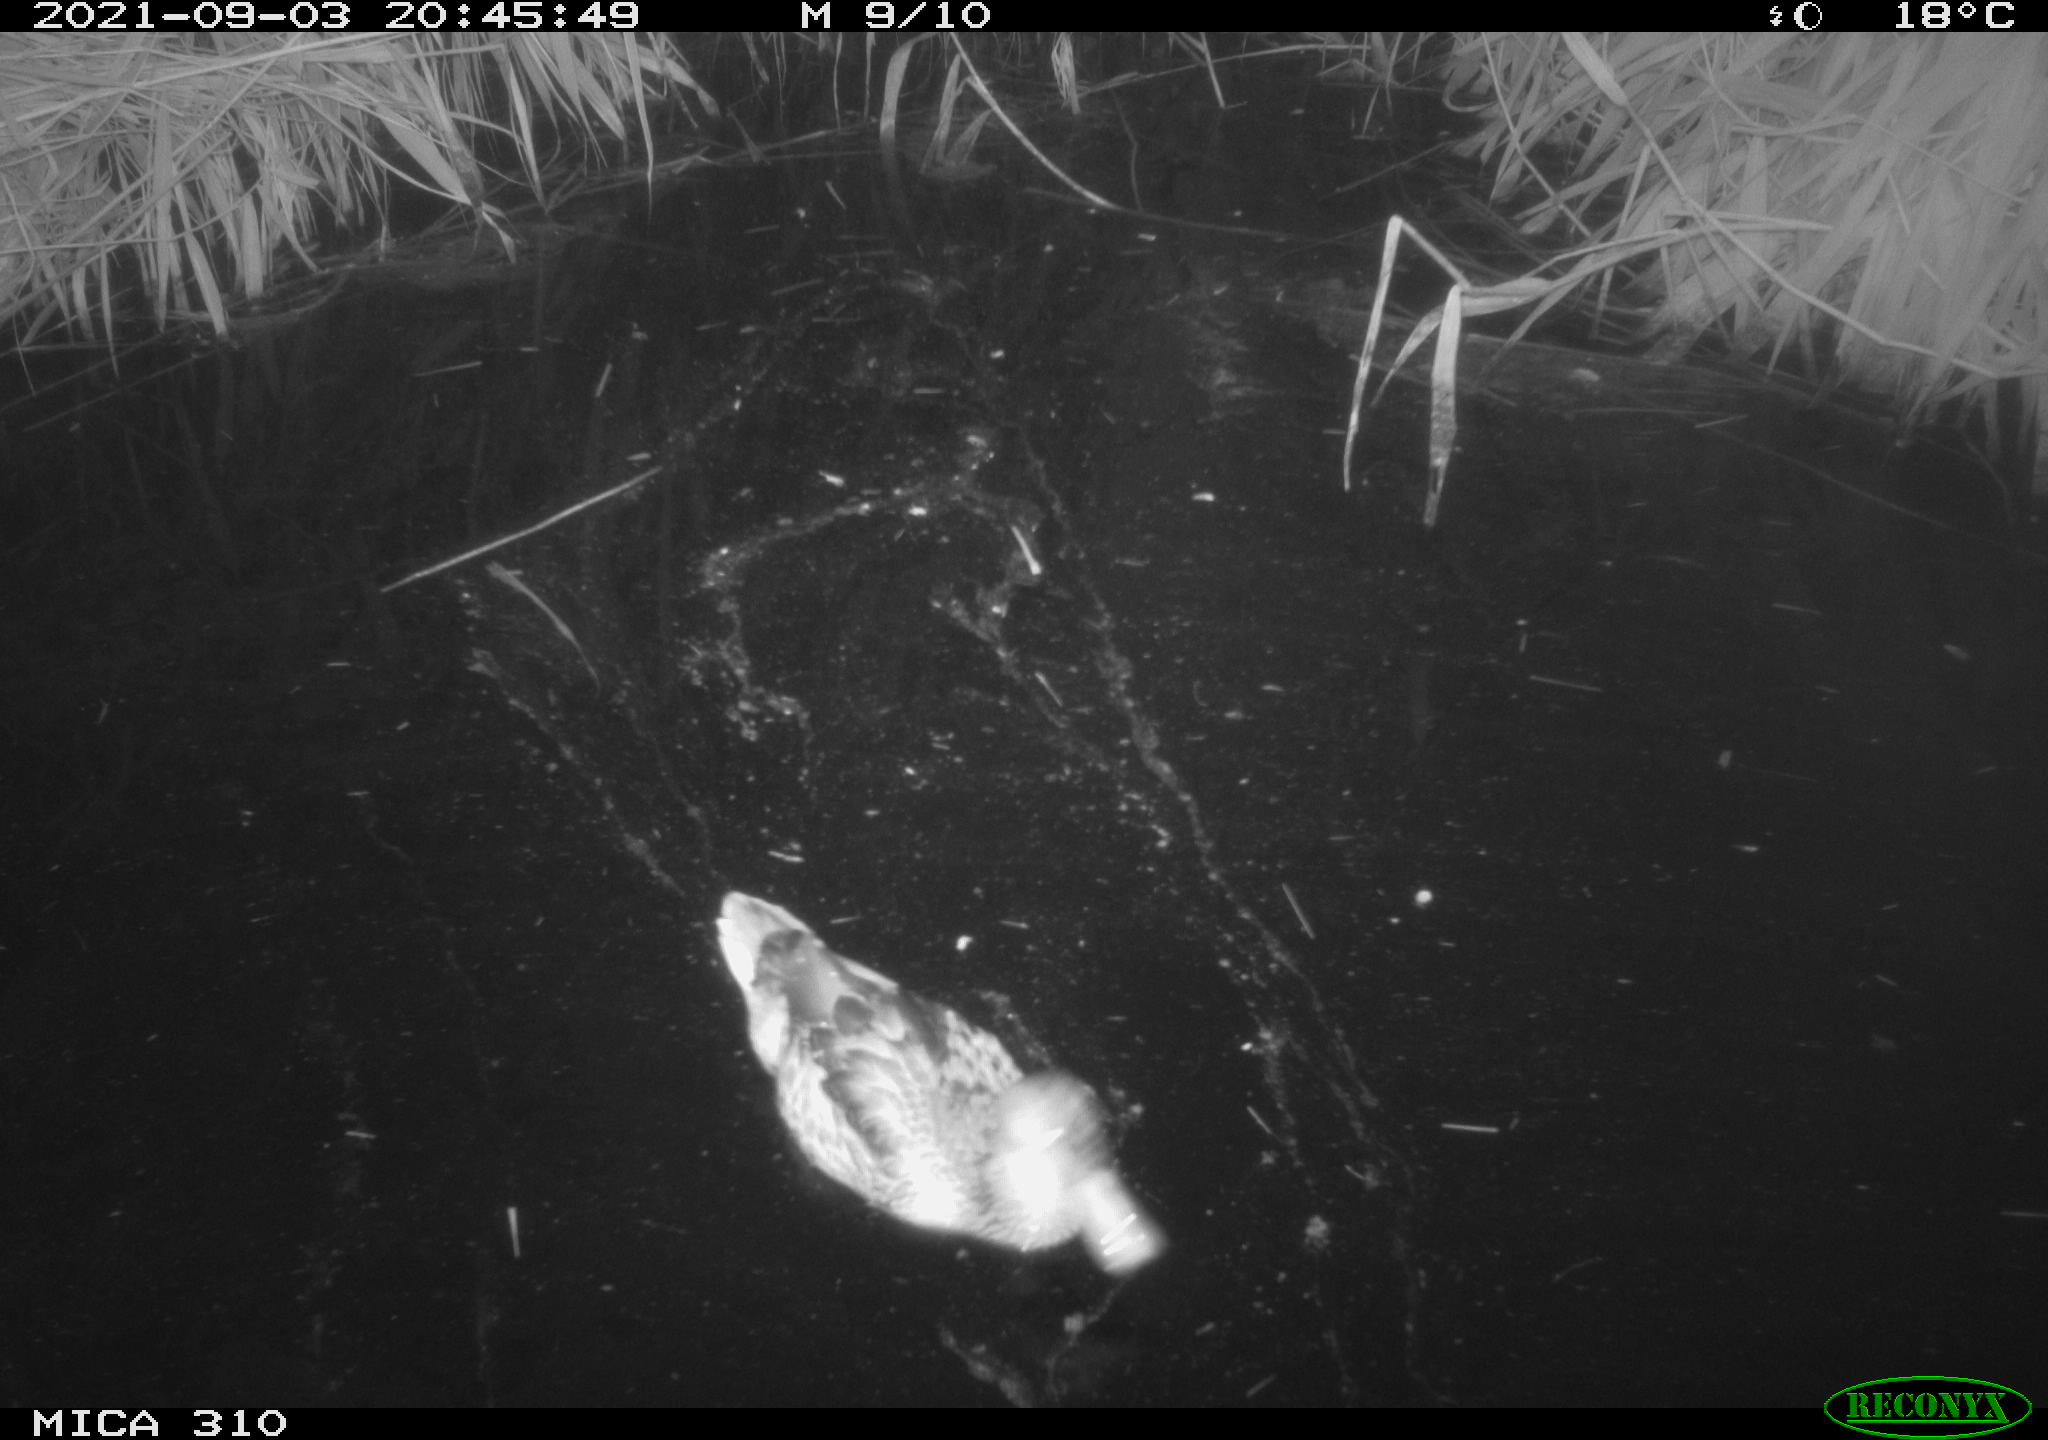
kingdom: Animalia
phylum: Chordata
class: Aves
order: Anseriformes
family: Anatidae
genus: Mareca
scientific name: Mareca strepera
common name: Gadwall
